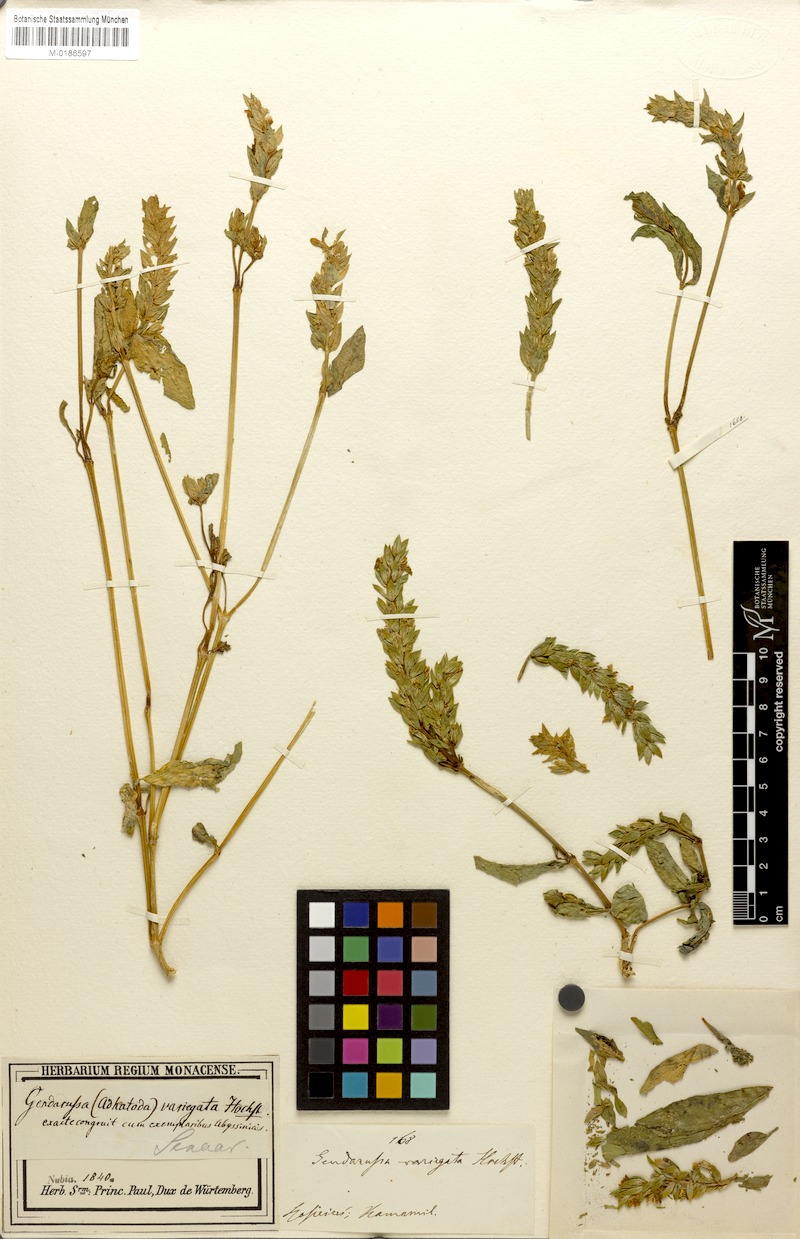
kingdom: Plantae
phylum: Tracheophyta
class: Magnoliopsida
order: Lamiales
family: Acanthaceae
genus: Nicoteba
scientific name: Nicoteba trinervia
